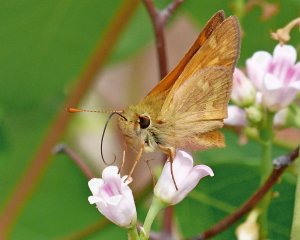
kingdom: Animalia
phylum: Arthropoda
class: Insecta
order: Lepidoptera
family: Hesperiidae
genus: Ochlodes
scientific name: Ochlodes sylvanoides
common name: Woodland Skipper
